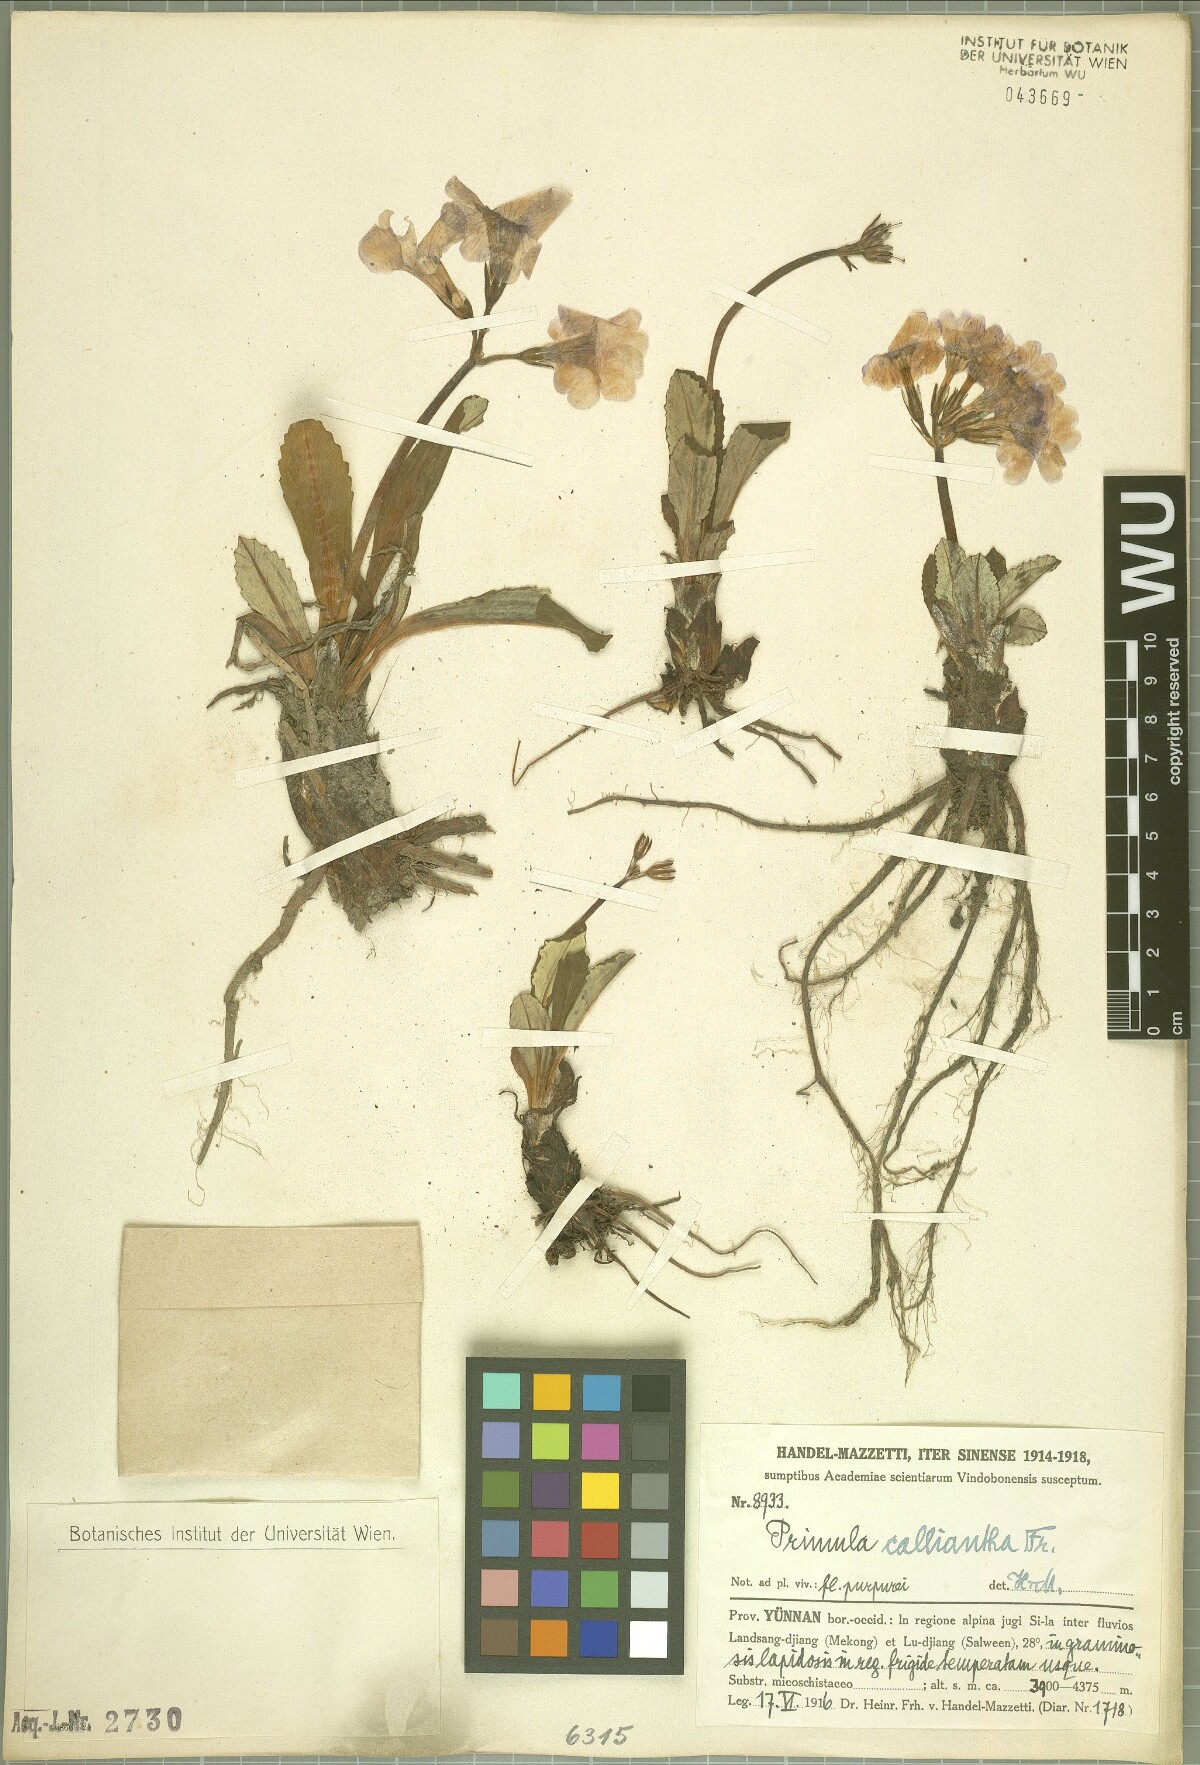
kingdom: Plantae
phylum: Tracheophyta
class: Magnoliopsida
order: Ericales
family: Primulaceae
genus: Primula
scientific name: Primula calliantha
